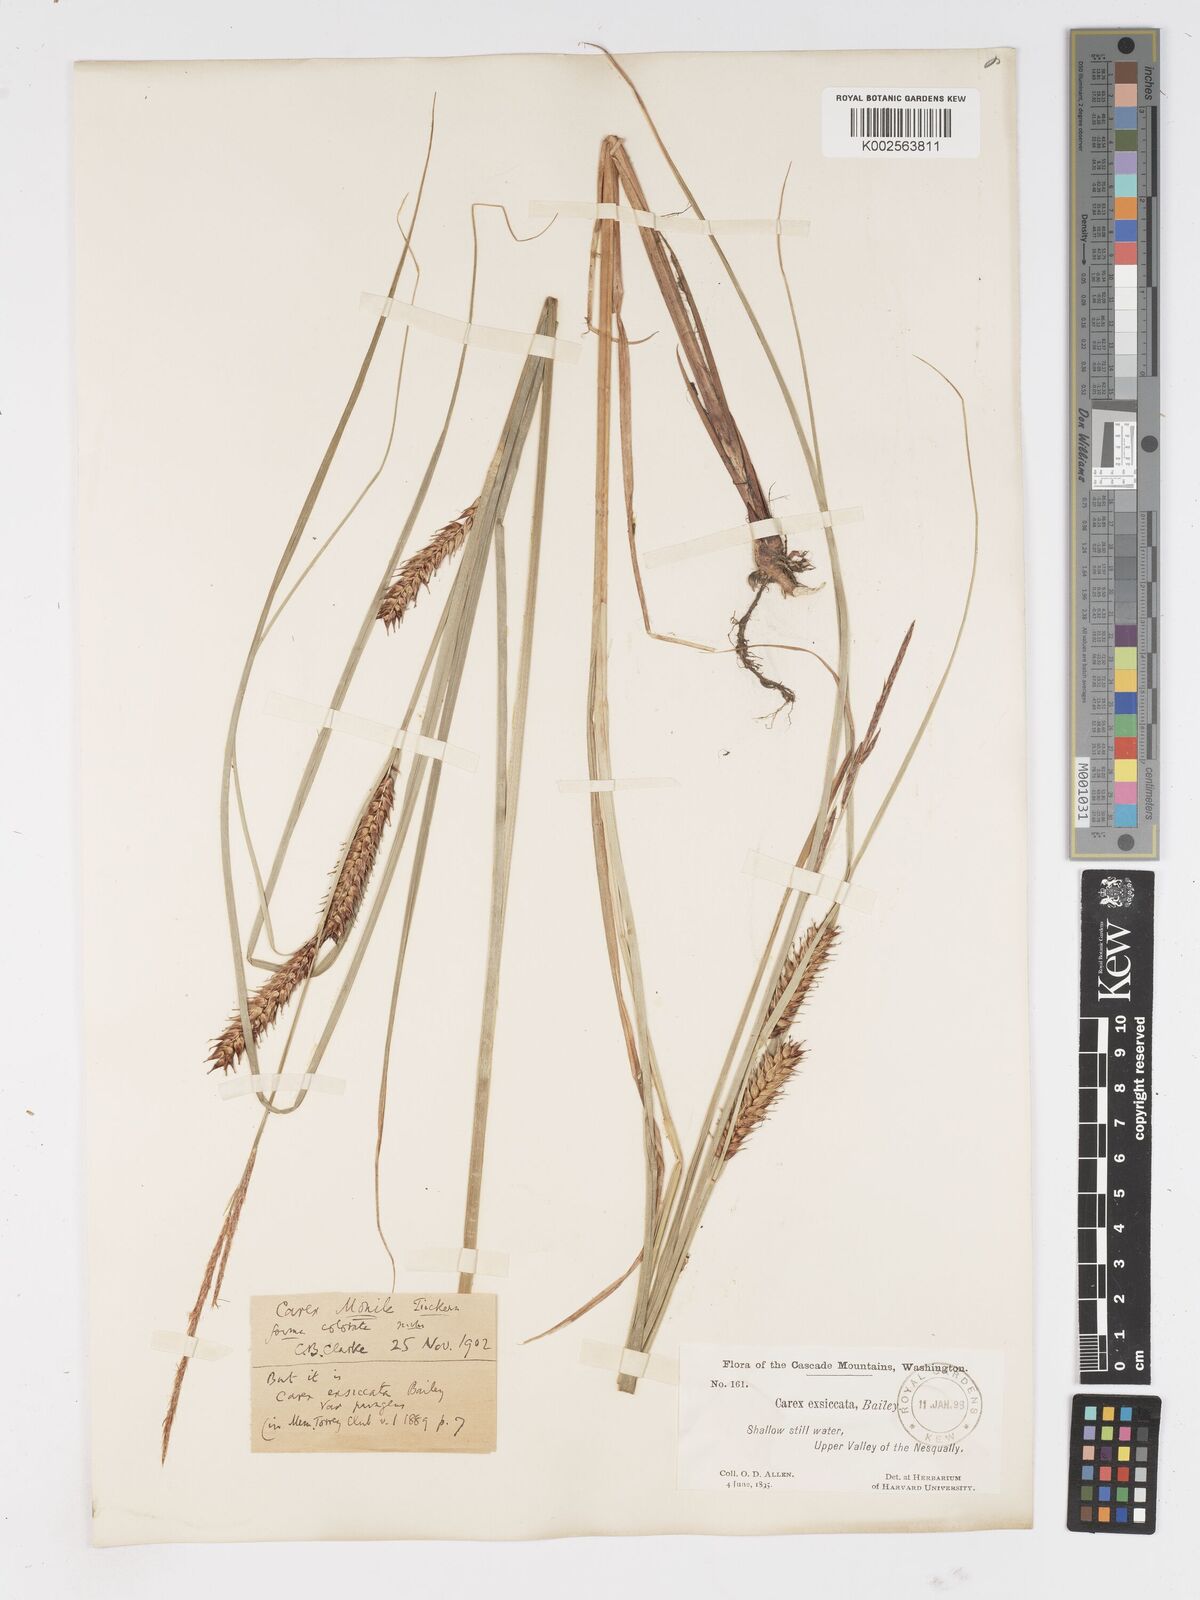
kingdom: Plantae
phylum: Tracheophyta
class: Liliopsida
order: Poales
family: Cyperaceae
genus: Carex
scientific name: Carex exsiccata
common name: Beaked sedge
